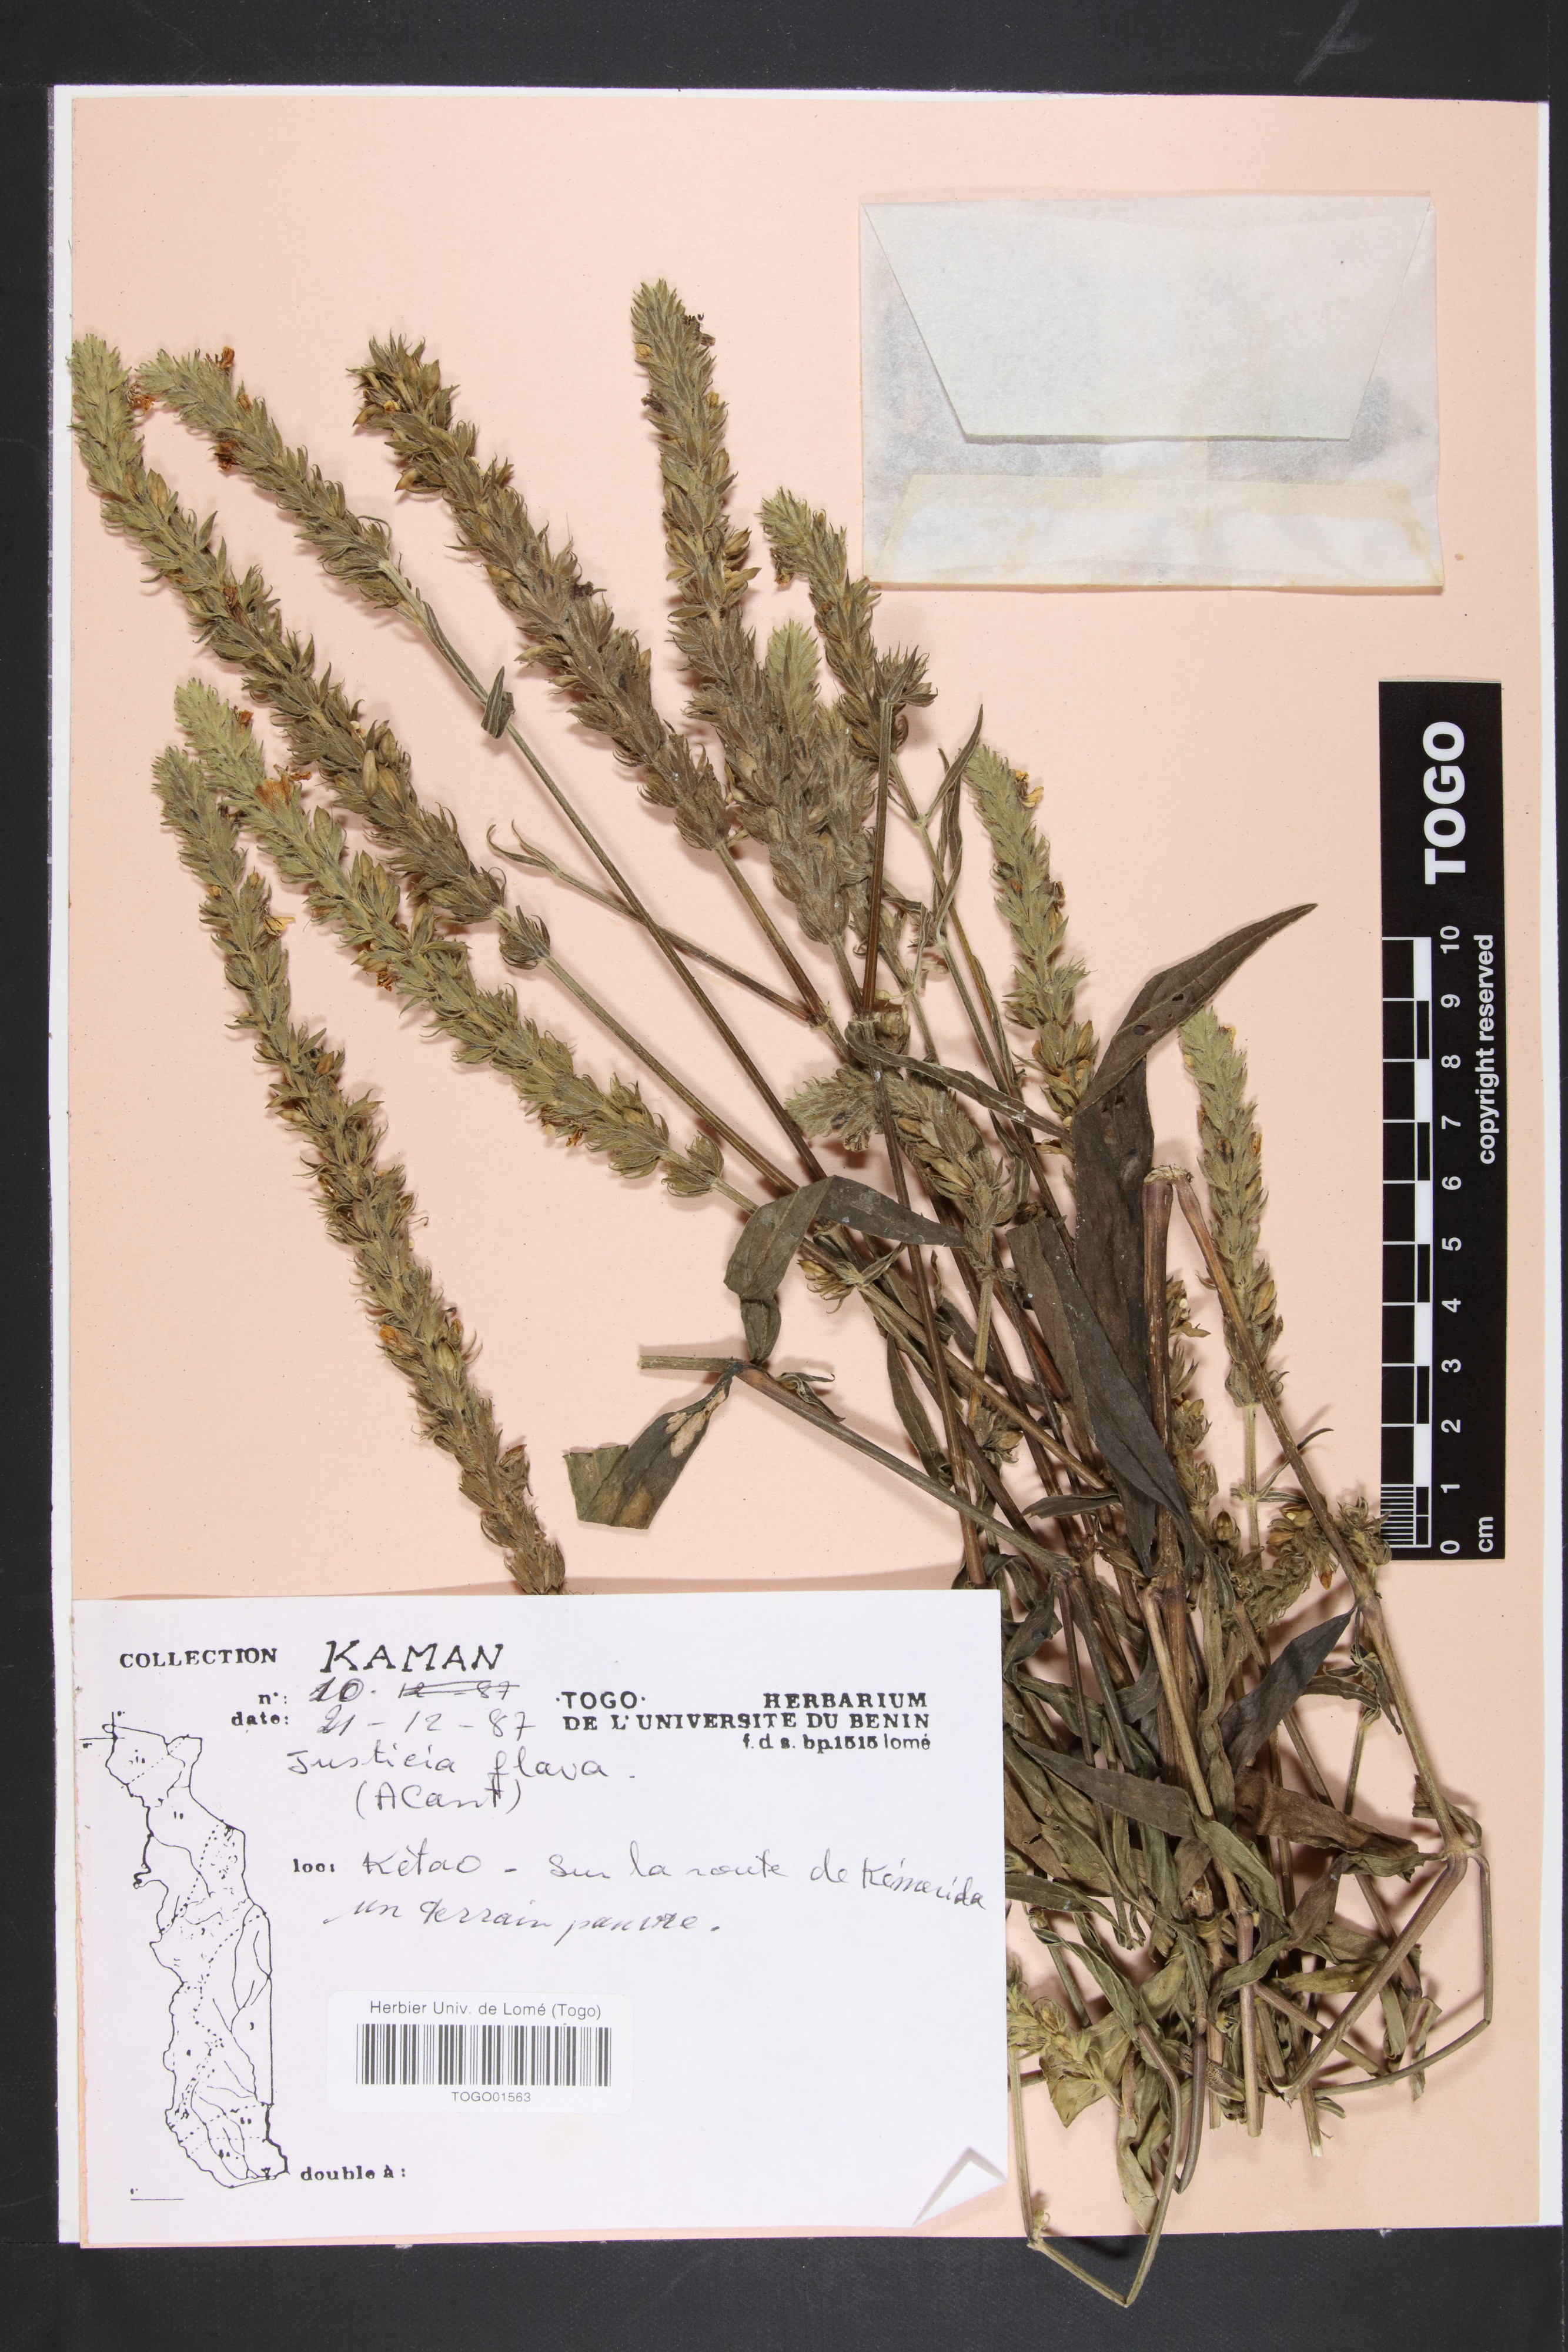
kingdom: Plantae
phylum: Tracheophyta
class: Magnoliopsida
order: Lamiales
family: Acanthaceae
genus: Justicia
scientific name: Justicia flava
